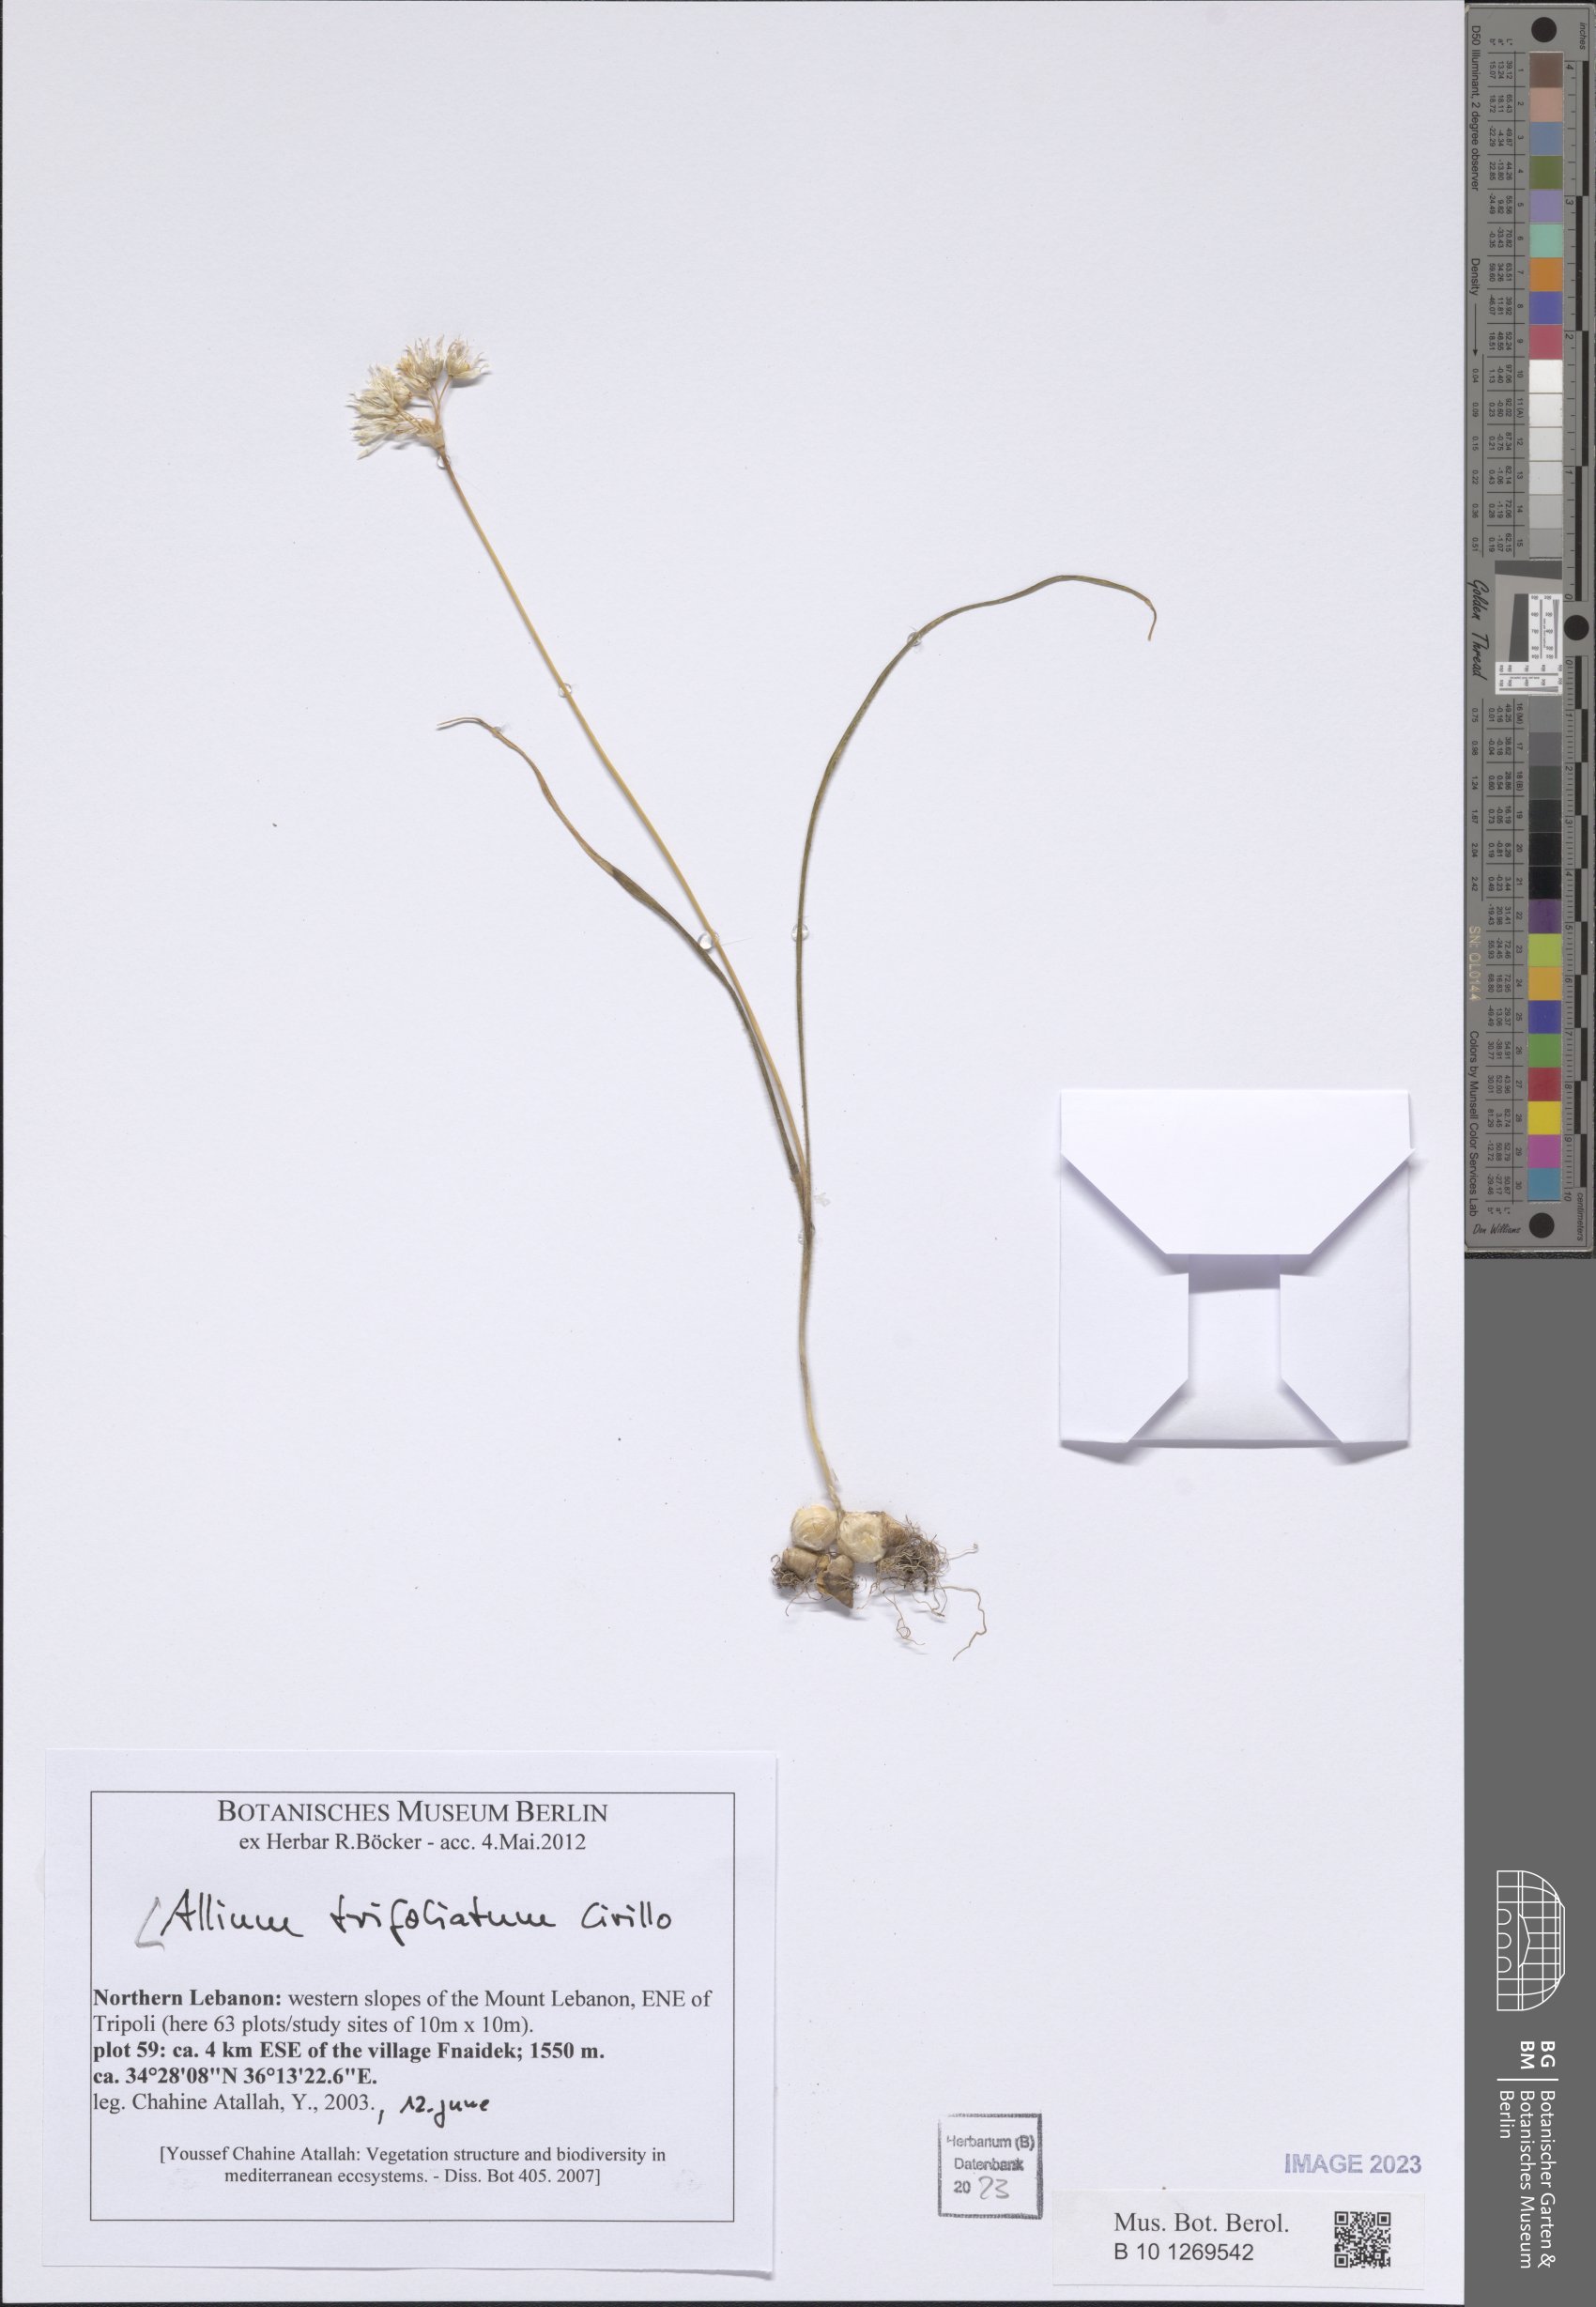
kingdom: Plantae
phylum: Tracheophyta
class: Liliopsida
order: Asparagales
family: Amaryllidaceae
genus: Allium
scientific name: Allium trifoliatum
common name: Pink garlic
